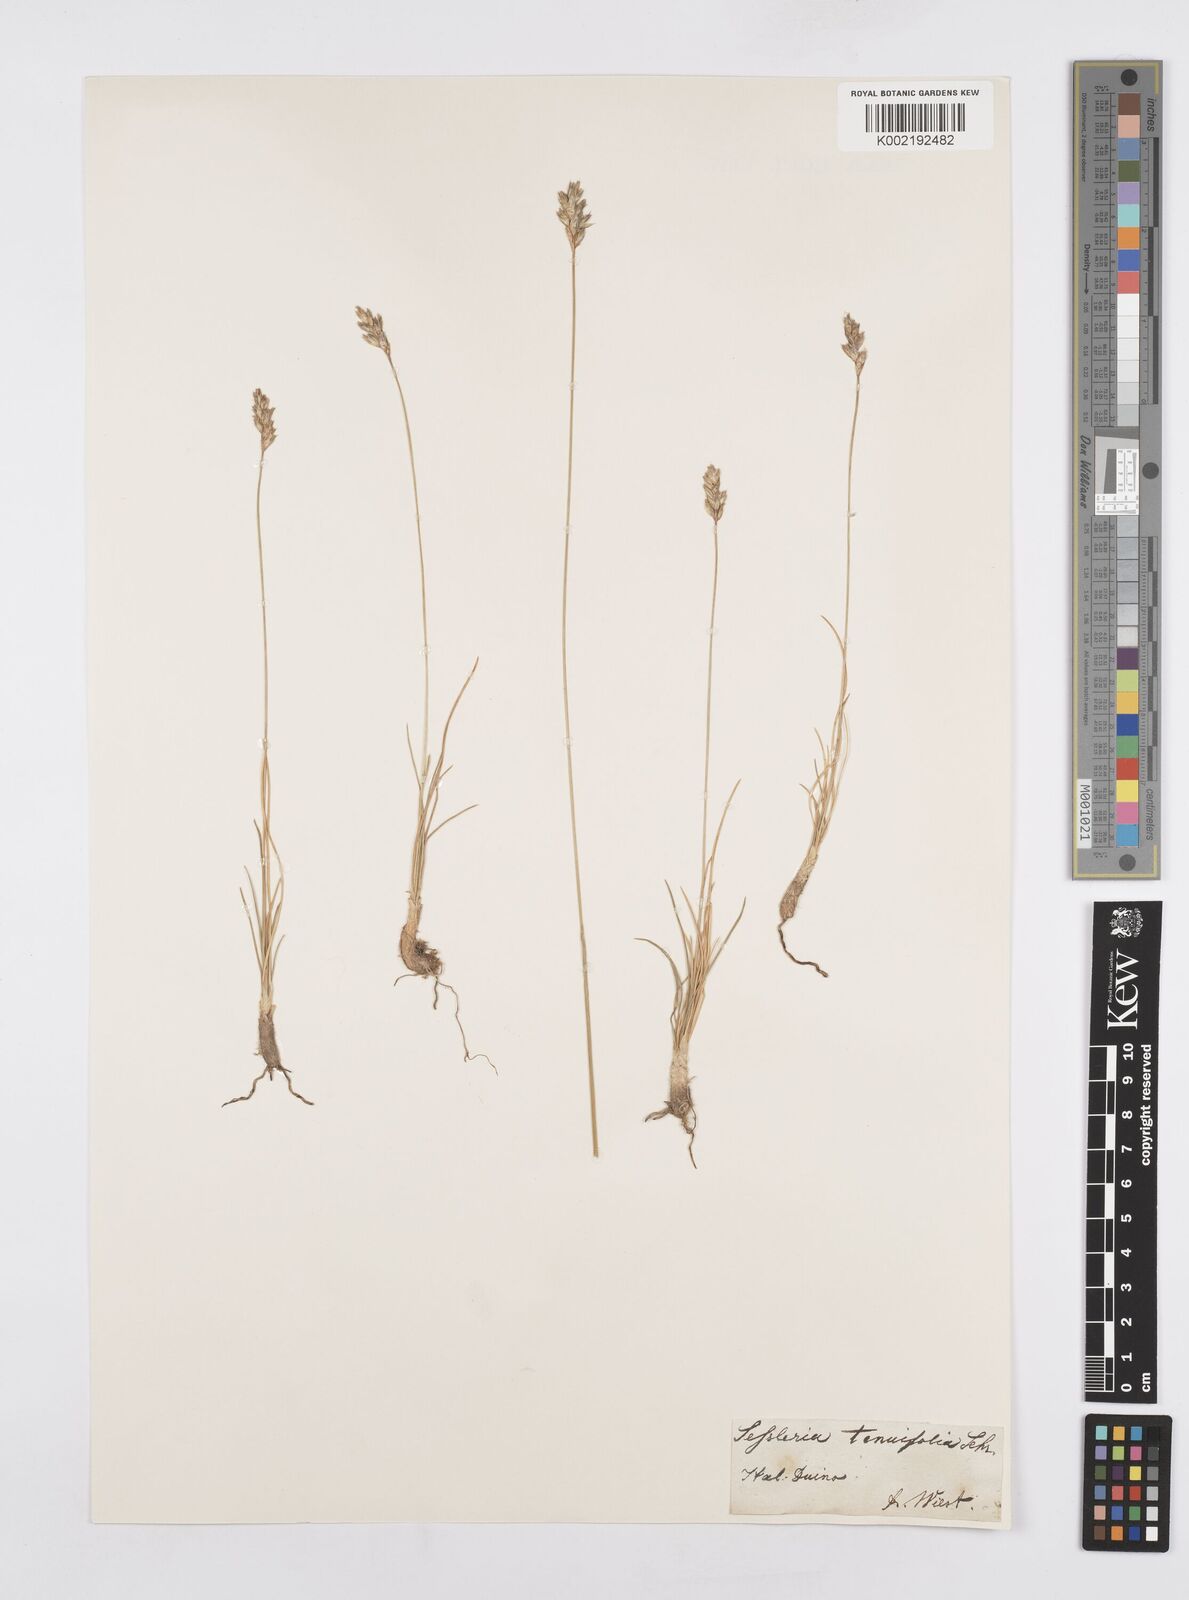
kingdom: Plantae
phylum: Tracheophyta
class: Liliopsida
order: Poales
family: Poaceae
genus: Sesleria
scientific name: Sesleria juncifolia
